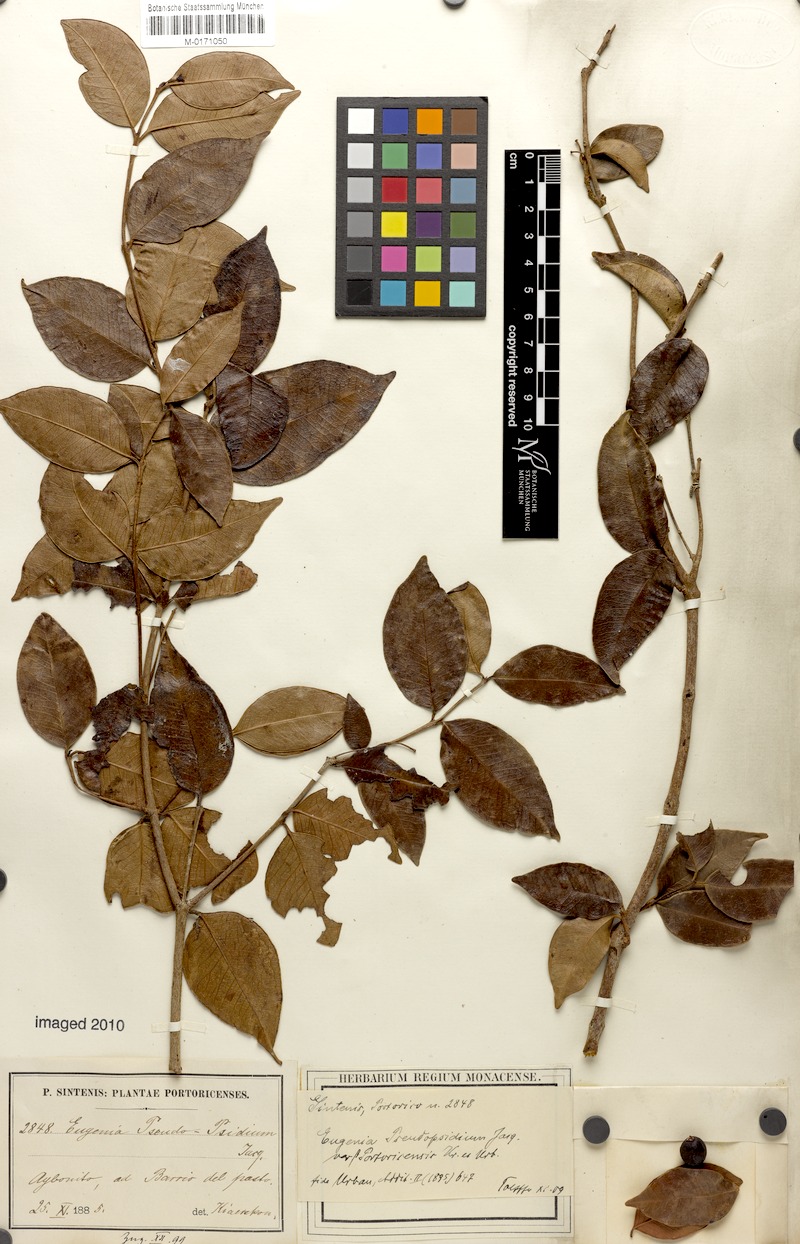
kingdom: Plantae
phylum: Tracheophyta
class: Magnoliopsida
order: Myrtales
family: Myrtaceae
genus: Eugenia
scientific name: Eugenia pseudopsidium
